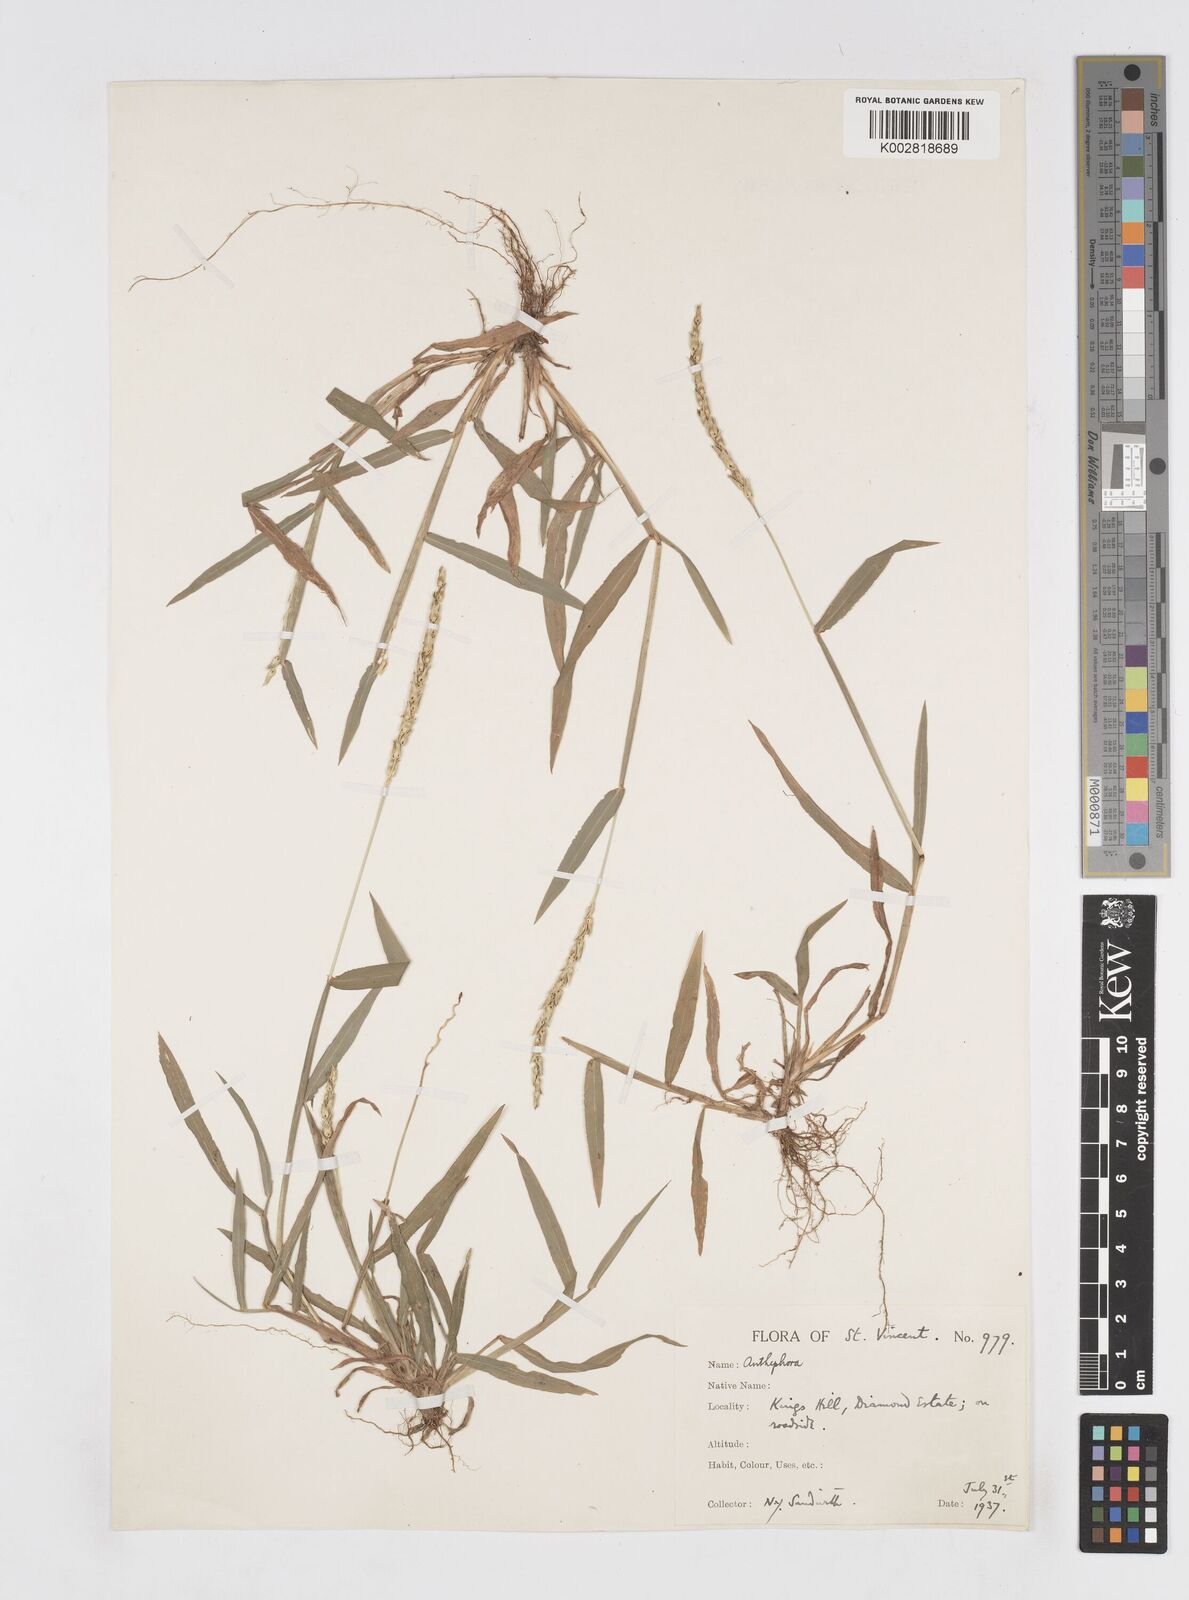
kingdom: Plantae
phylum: Tracheophyta
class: Liliopsida
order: Poales
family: Poaceae
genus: Anthephora
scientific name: Anthephora hermaphrodita
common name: Oldfield grass
